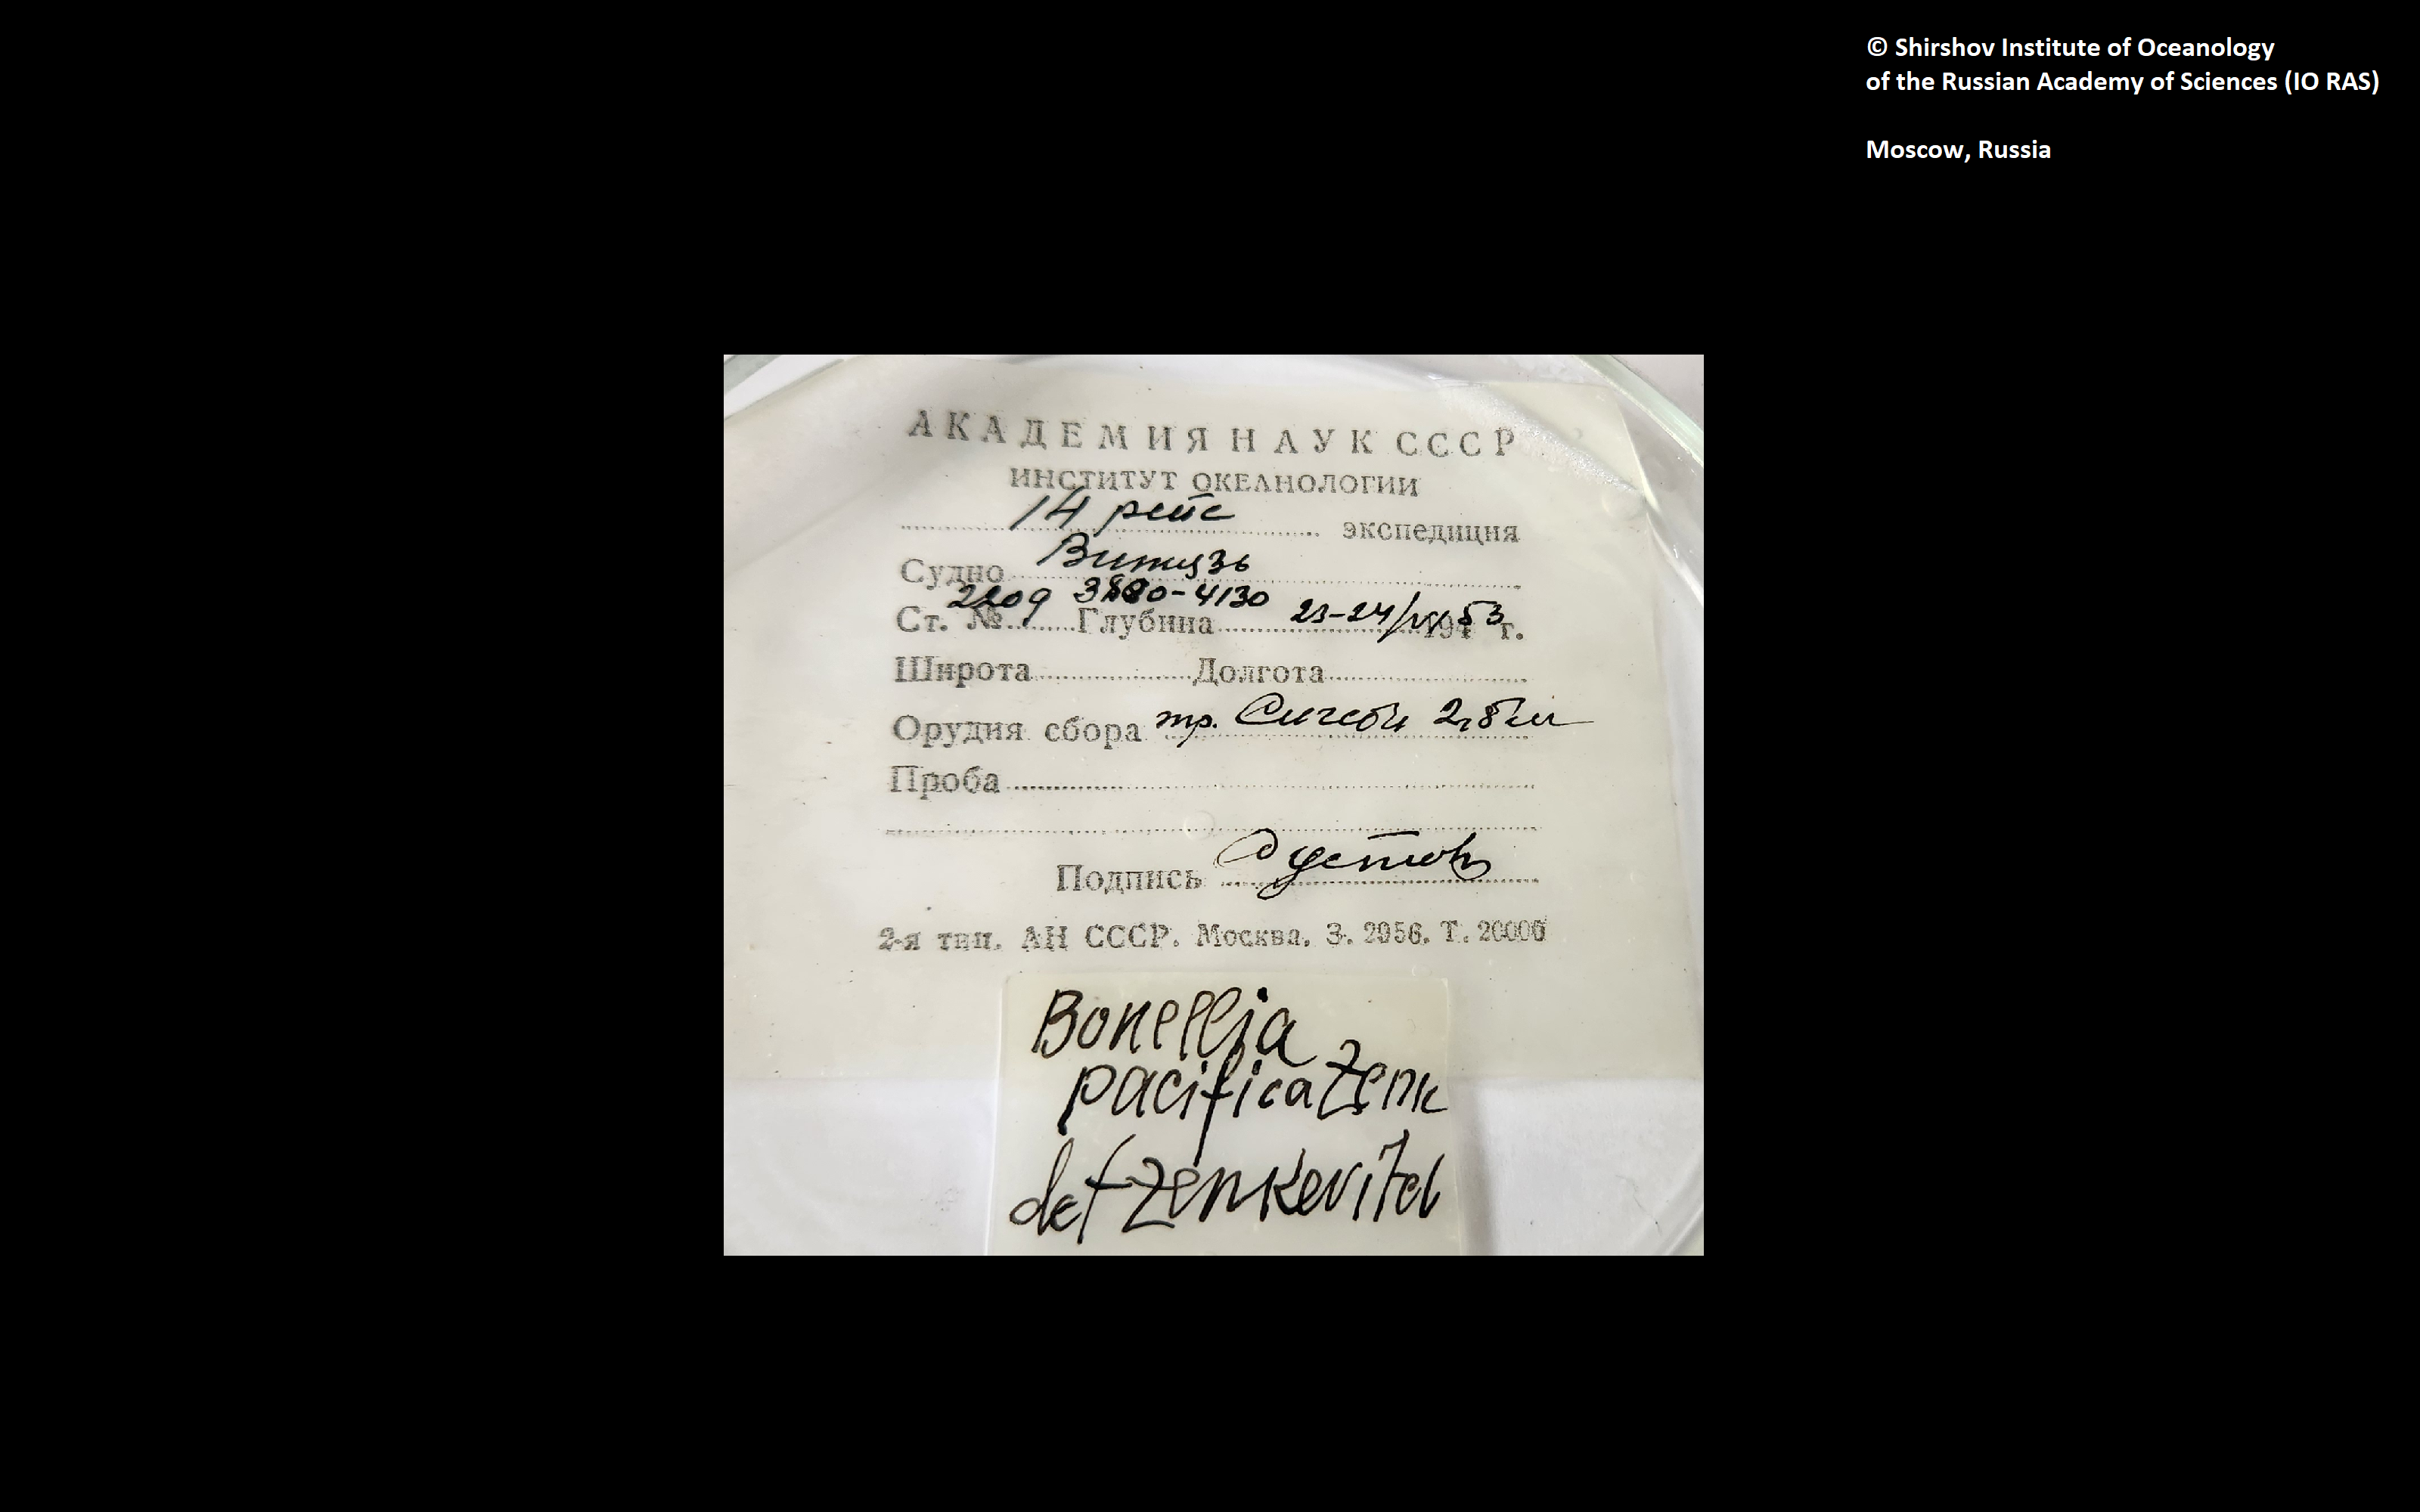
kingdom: Animalia
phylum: Annelida
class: Polychaeta
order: Echiuroidea
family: Bonelliidae
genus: Bonellia
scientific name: Bonellia pacifica
